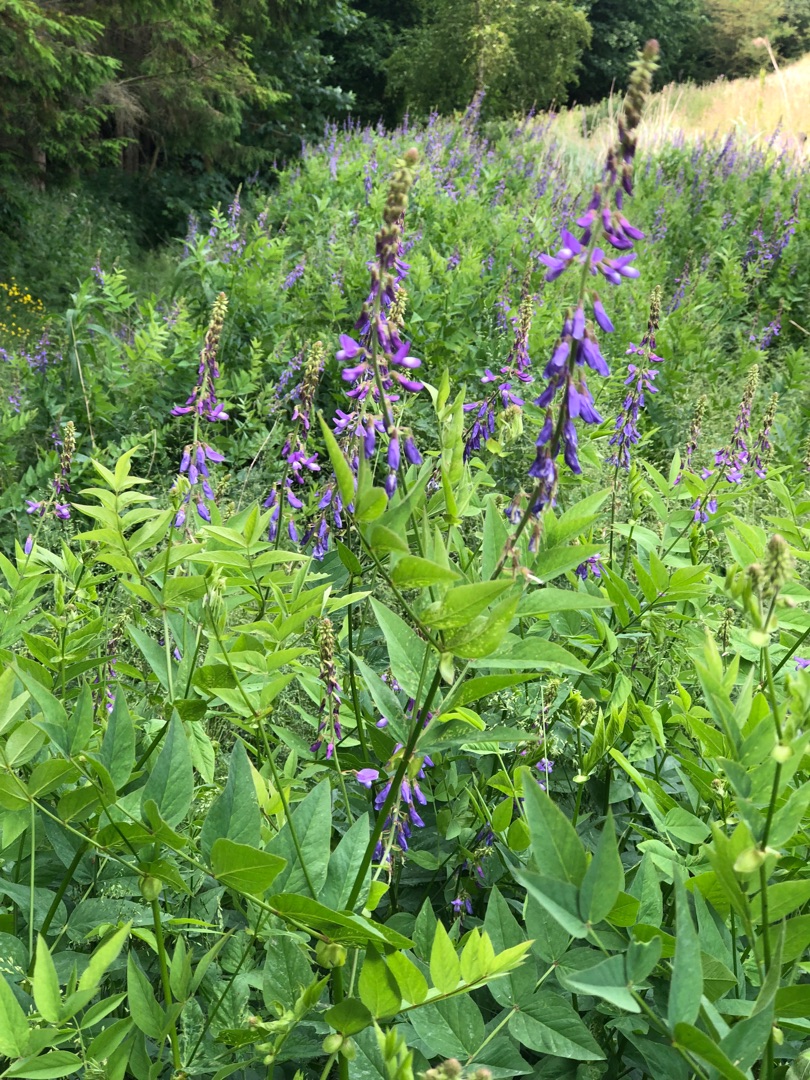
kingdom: Plantae
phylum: Tracheophyta
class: Magnoliopsida
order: Fabales
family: Fabaceae
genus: Galega
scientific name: Galega orientalis
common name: Blå stregbælg
